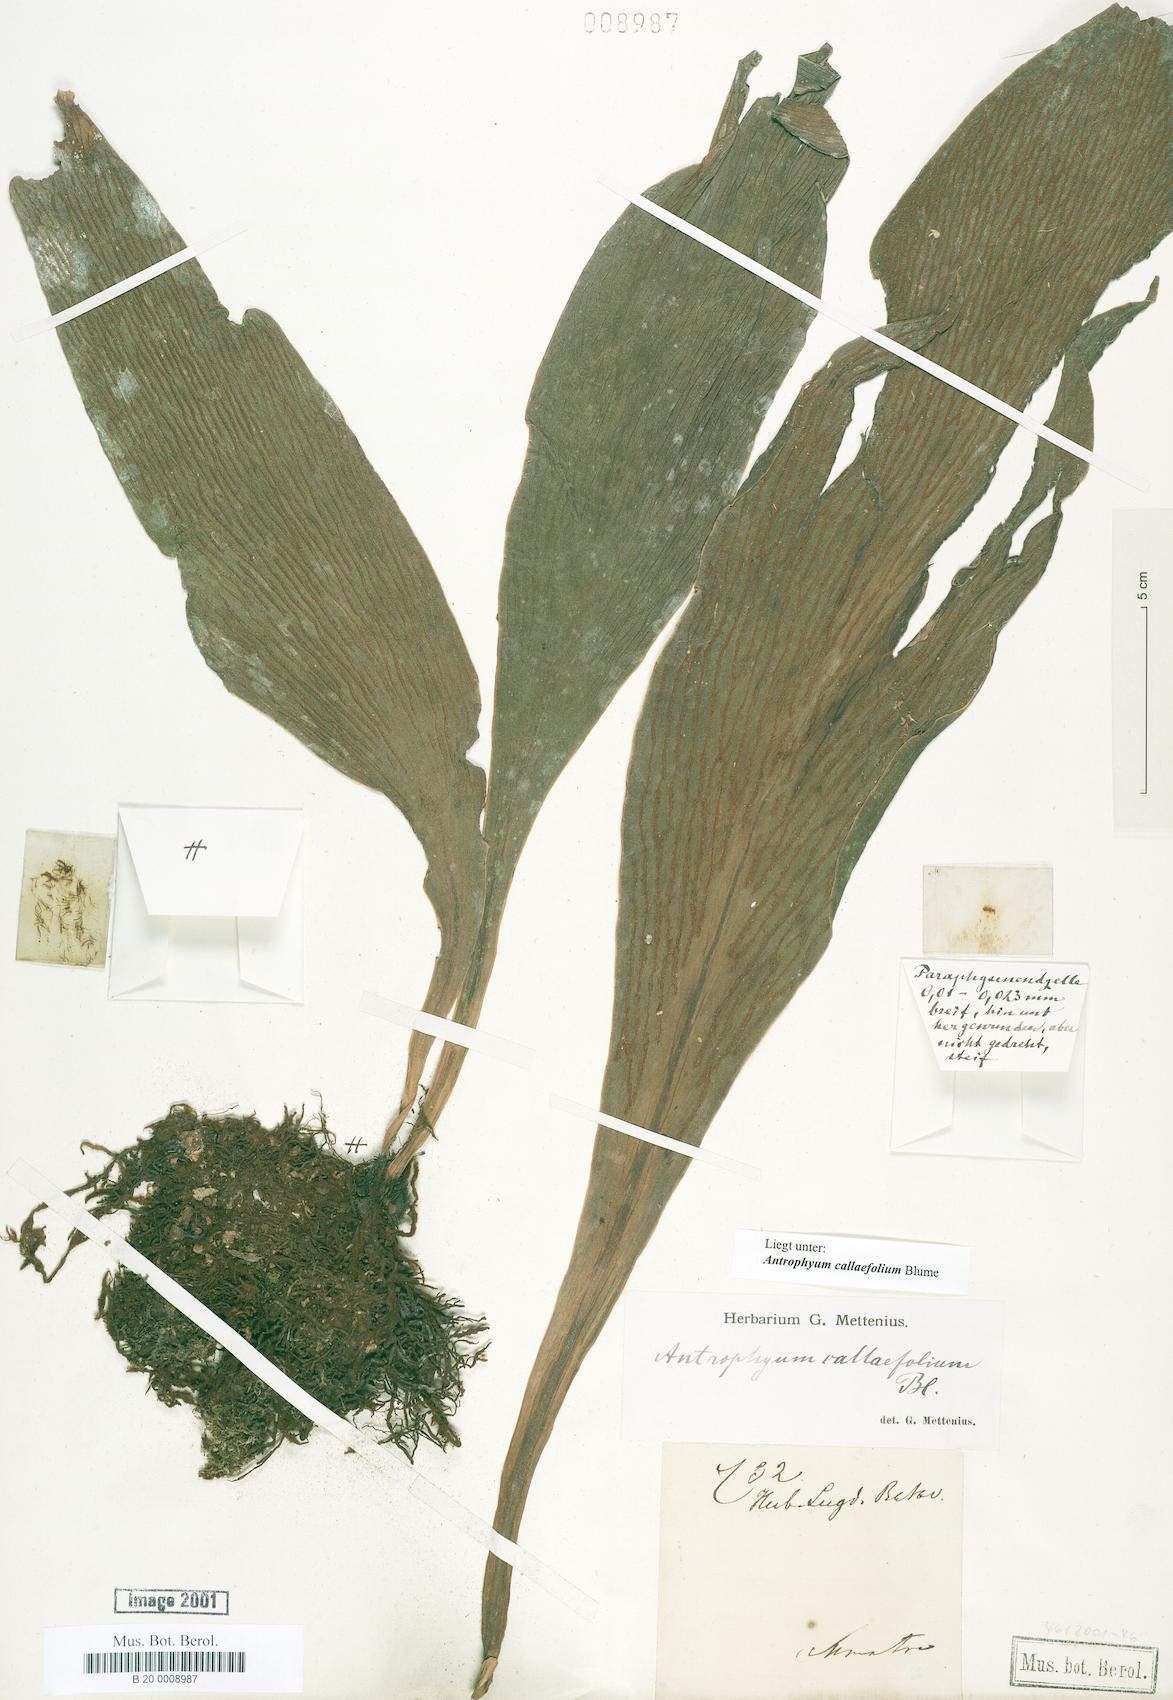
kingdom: Plantae
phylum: Tracheophyta
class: Polypodiopsida
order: Polypodiales
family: Pteridaceae
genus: Antrophyum
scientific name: Antrophyum callifolium
